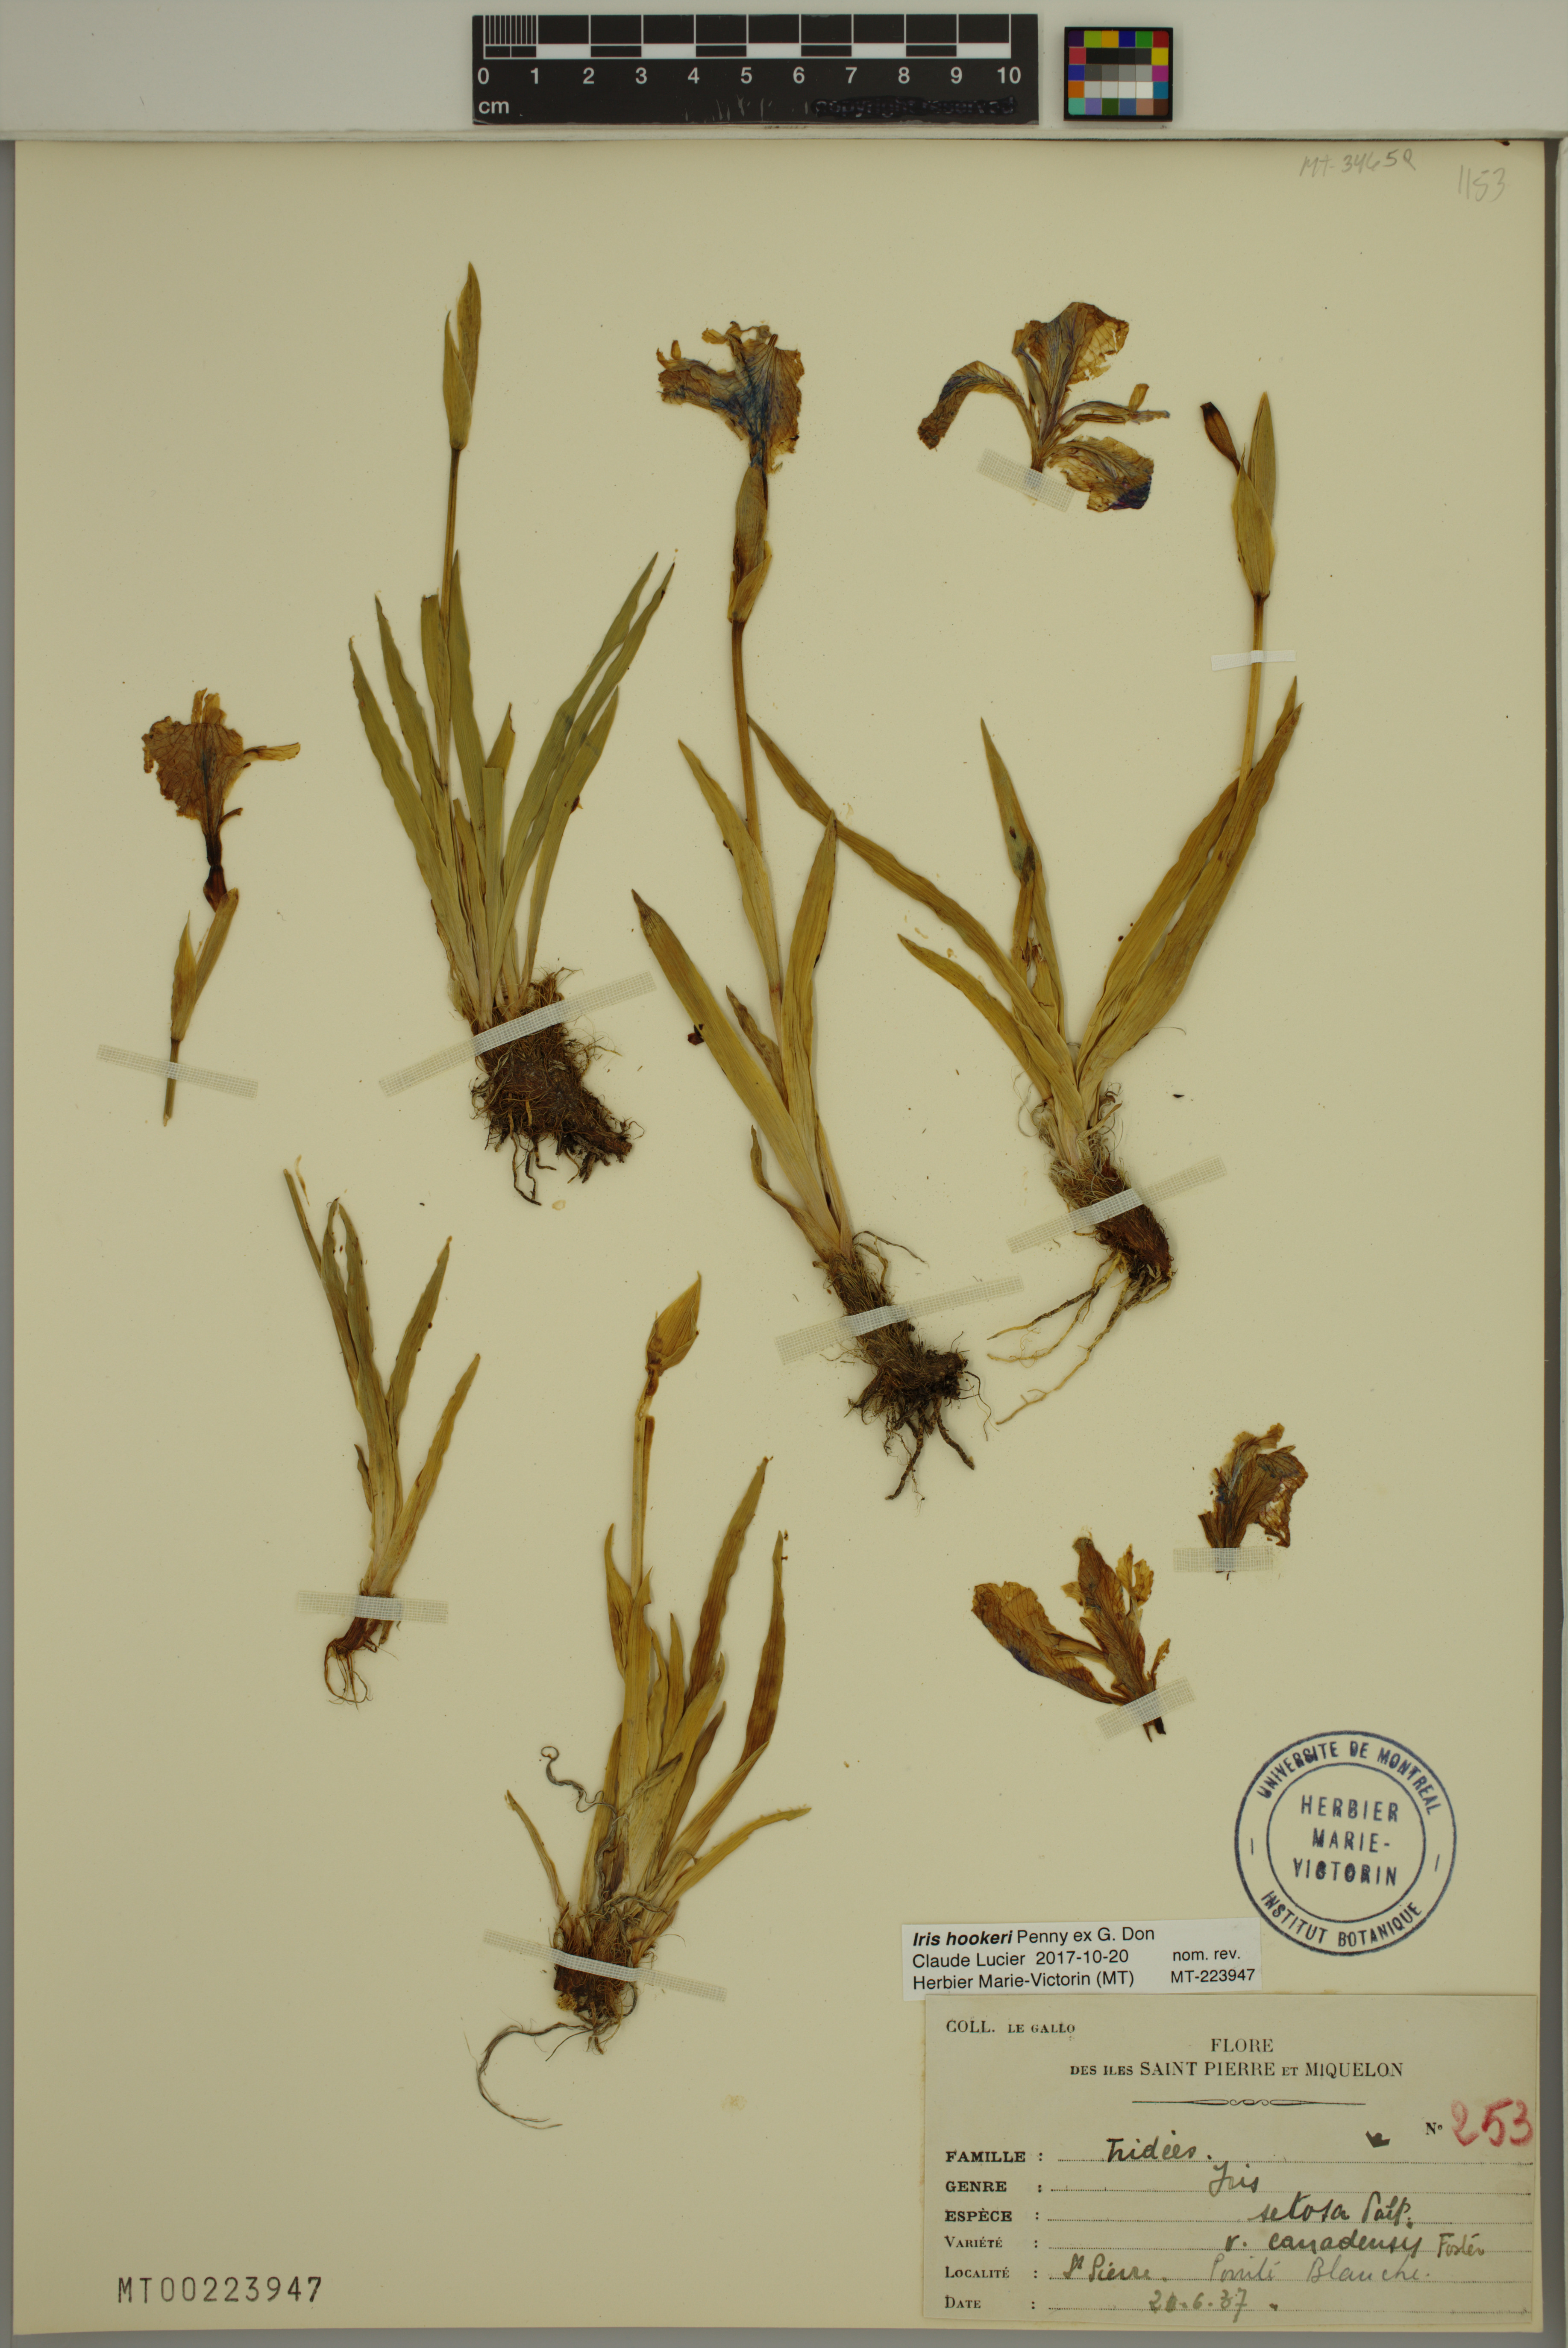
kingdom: Plantae
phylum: Tracheophyta
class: Liliopsida
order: Asparagales
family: Iridaceae
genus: Iris
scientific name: Iris hookeri
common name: Canada beach-head iris
